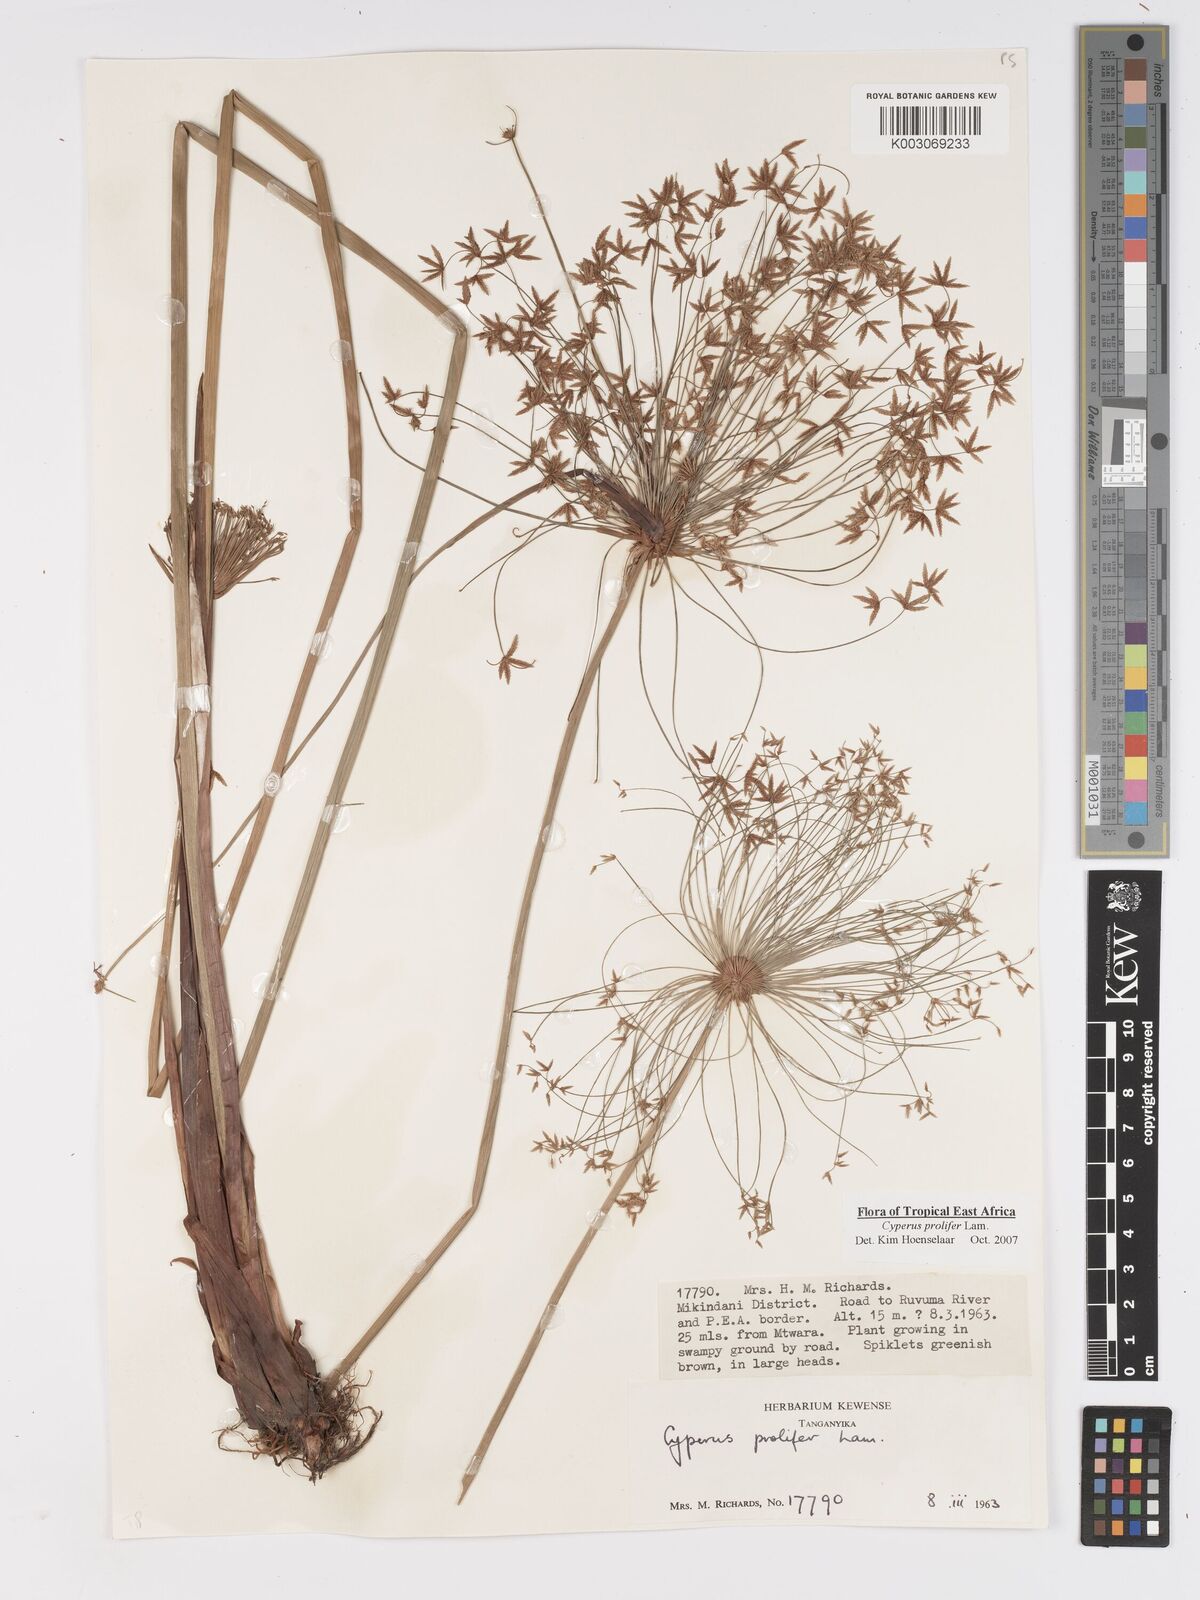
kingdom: Plantae
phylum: Tracheophyta
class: Liliopsida
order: Poales
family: Cyperaceae
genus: Cyperus
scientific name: Cyperus prolifer
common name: Miniature flatsedge
